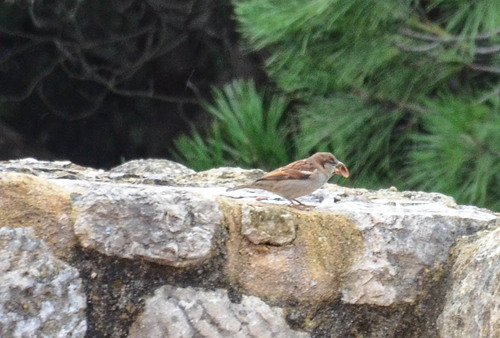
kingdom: Animalia
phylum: Chordata
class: Aves
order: Passeriformes
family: Passeridae
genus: Passer
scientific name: Passer domesticus
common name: House sparrow
